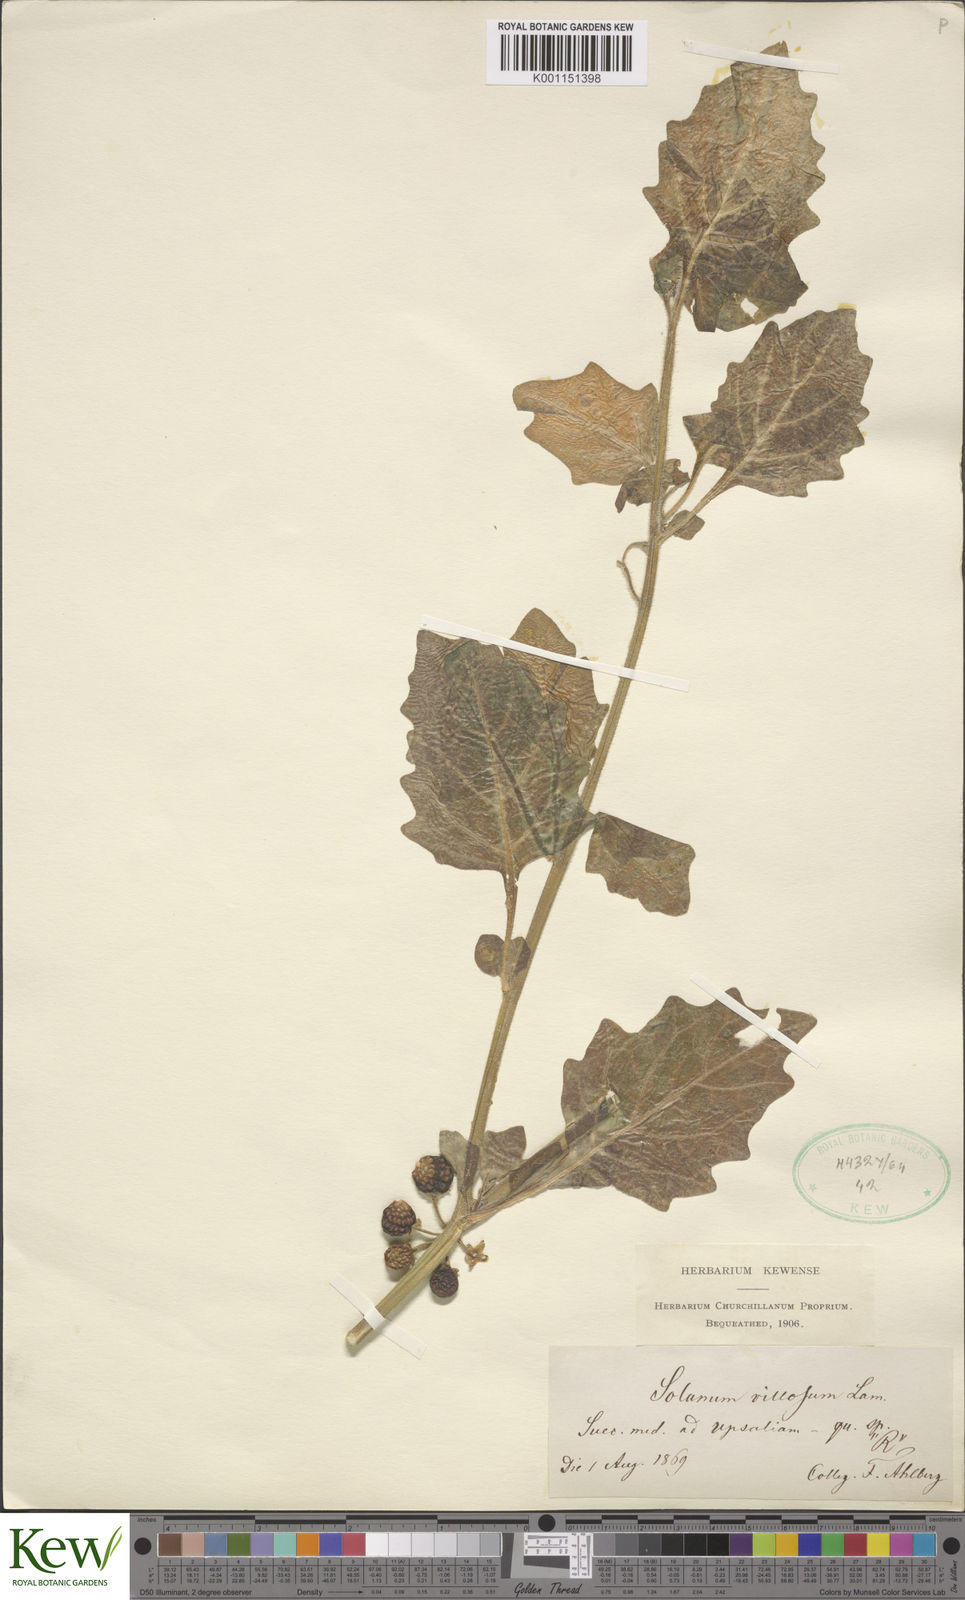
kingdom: Plantae
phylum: Tracheophyta
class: Magnoliopsida
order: Solanales
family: Solanaceae
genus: Solanum
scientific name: Solanum villosum
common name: Red nightshade
